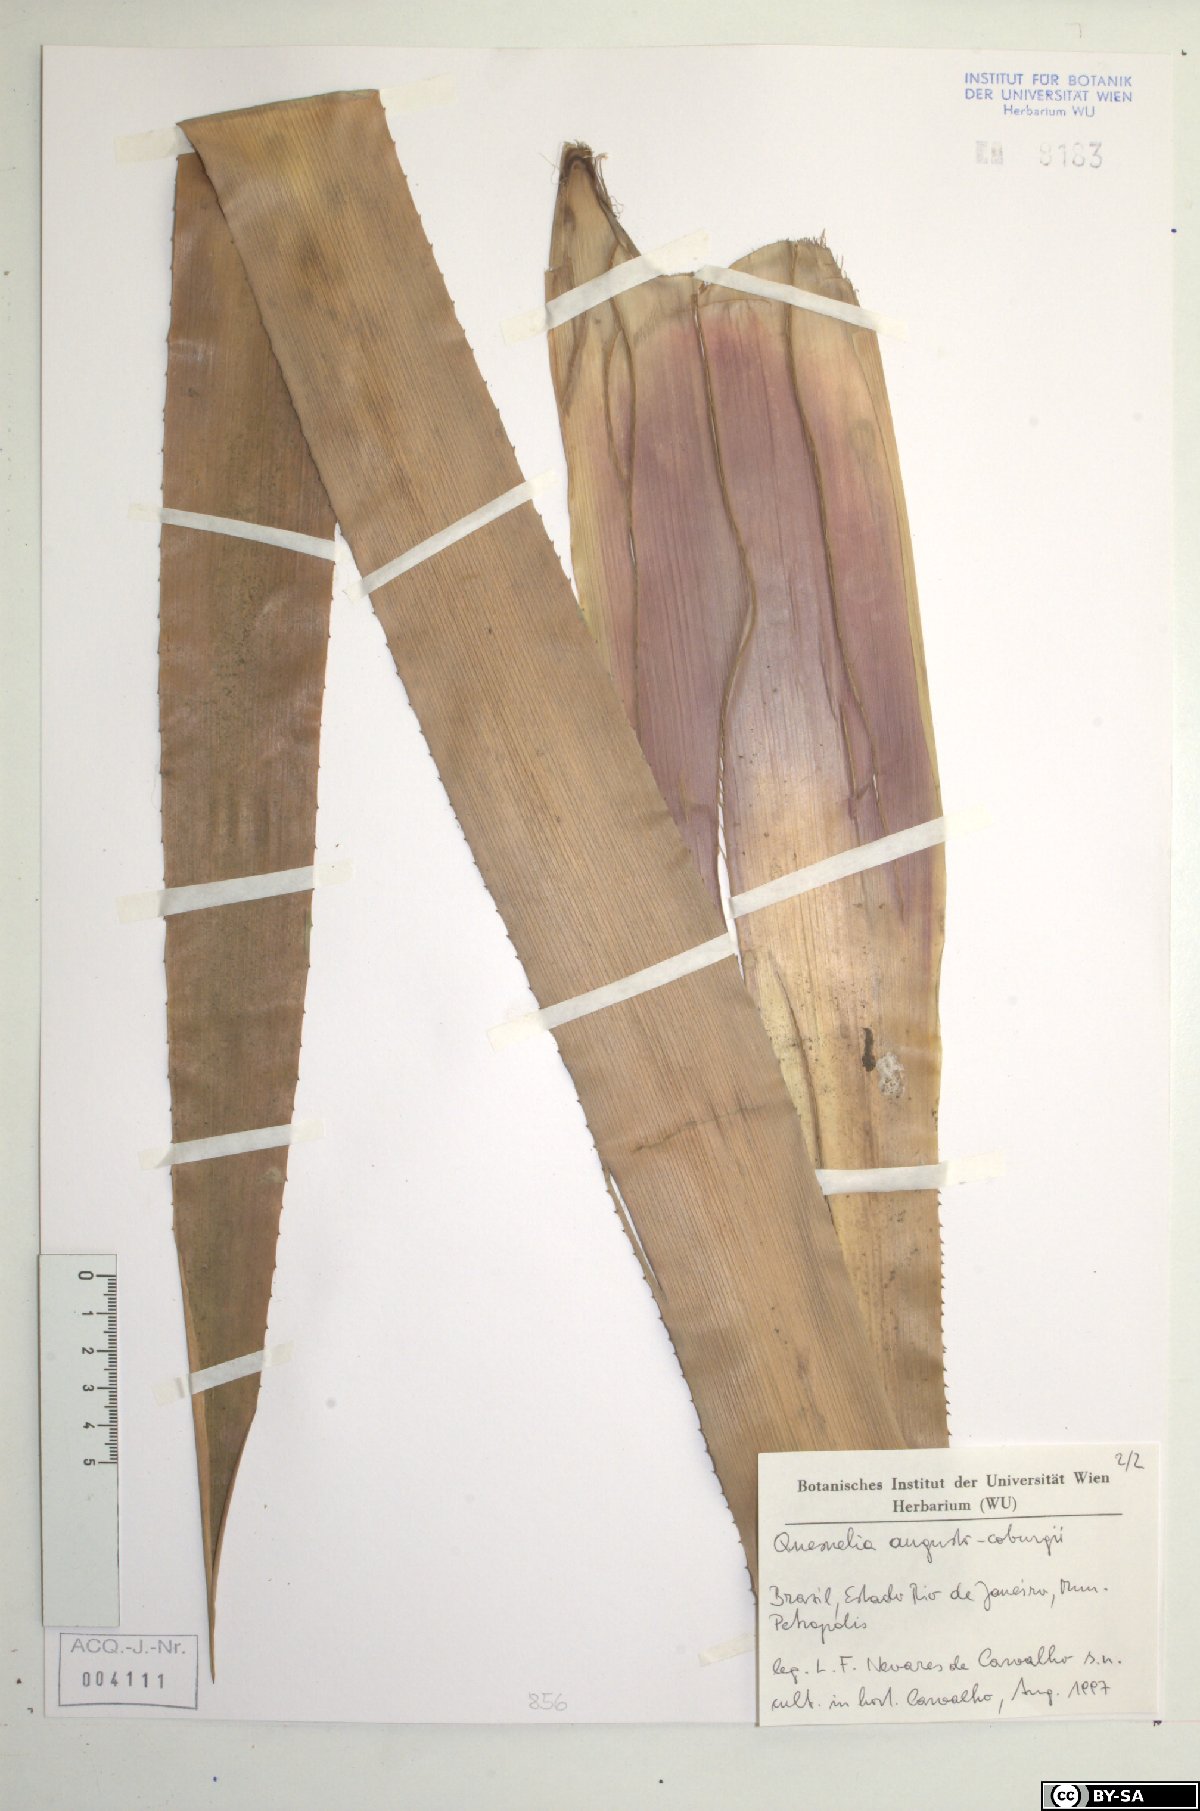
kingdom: Plantae
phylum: Tracheophyta
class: Liliopsida
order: Poales
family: Bromeliaceae
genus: Quesnelia
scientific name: Quesnelia augustocoburgi
